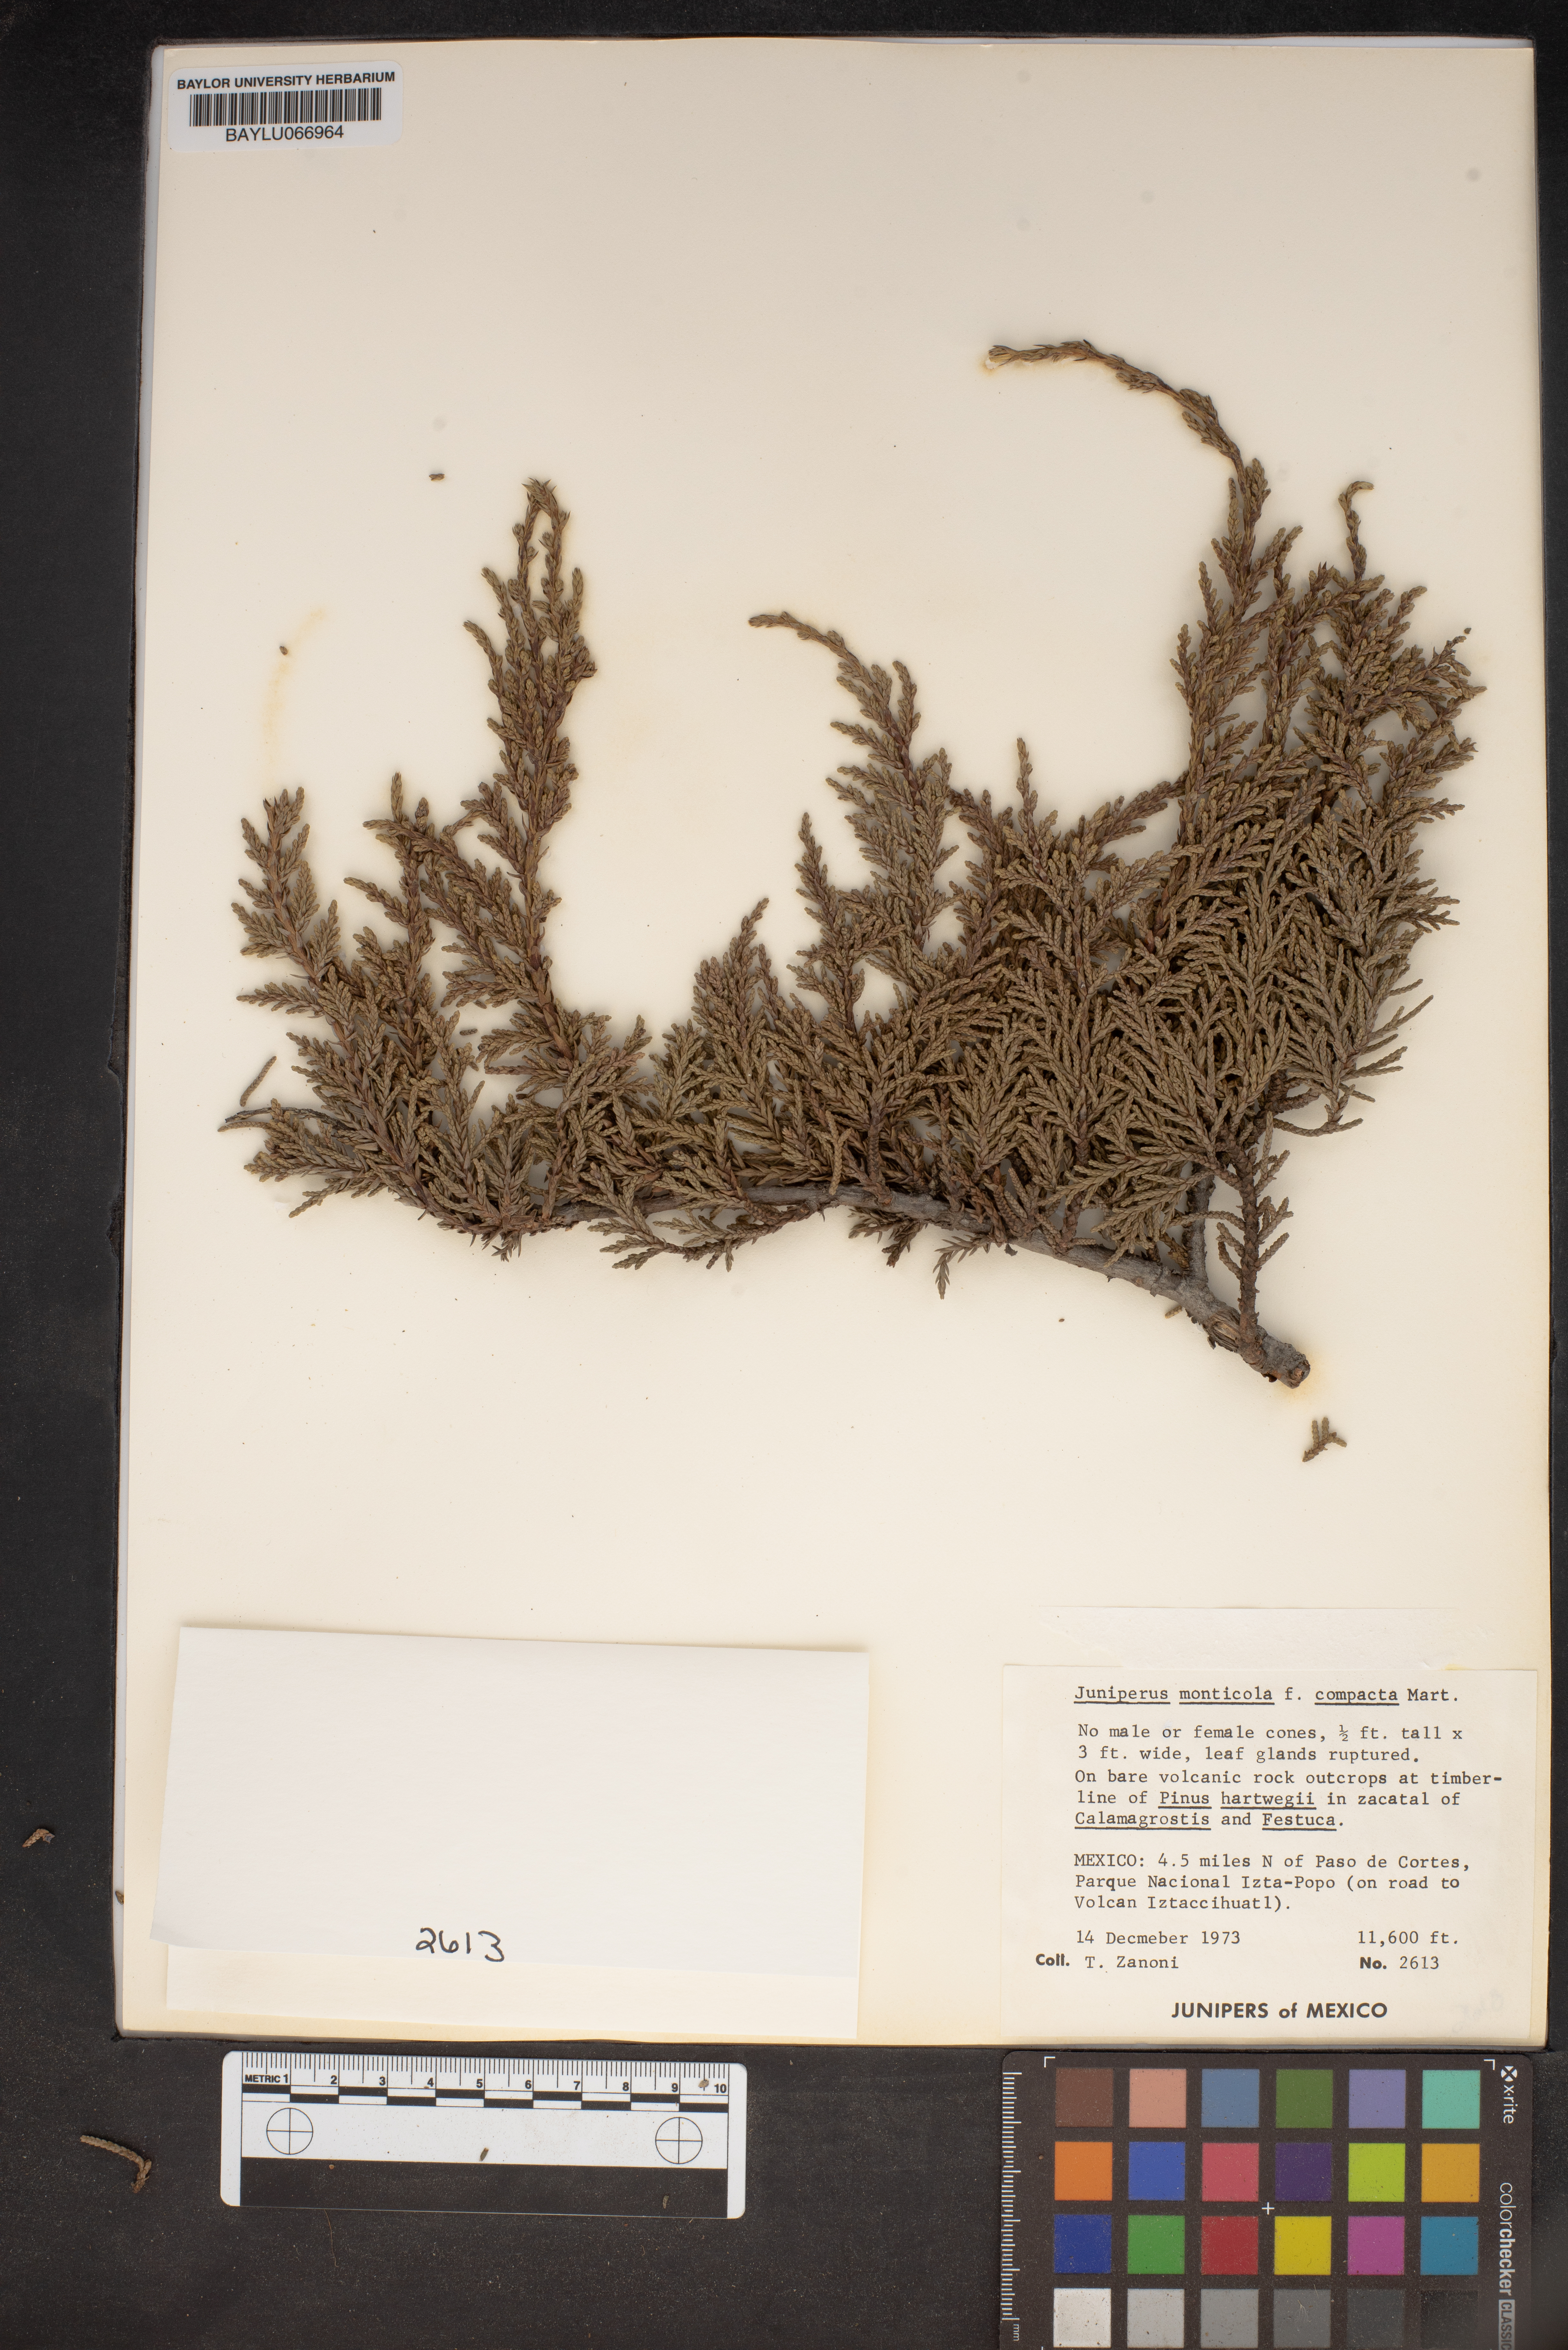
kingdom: Plantae
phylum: Tracheophyta
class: Pinopsida
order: Pinales
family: Cupressaceae
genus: Juniperus
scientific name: Juniperus monticola
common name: Mexican juniper
